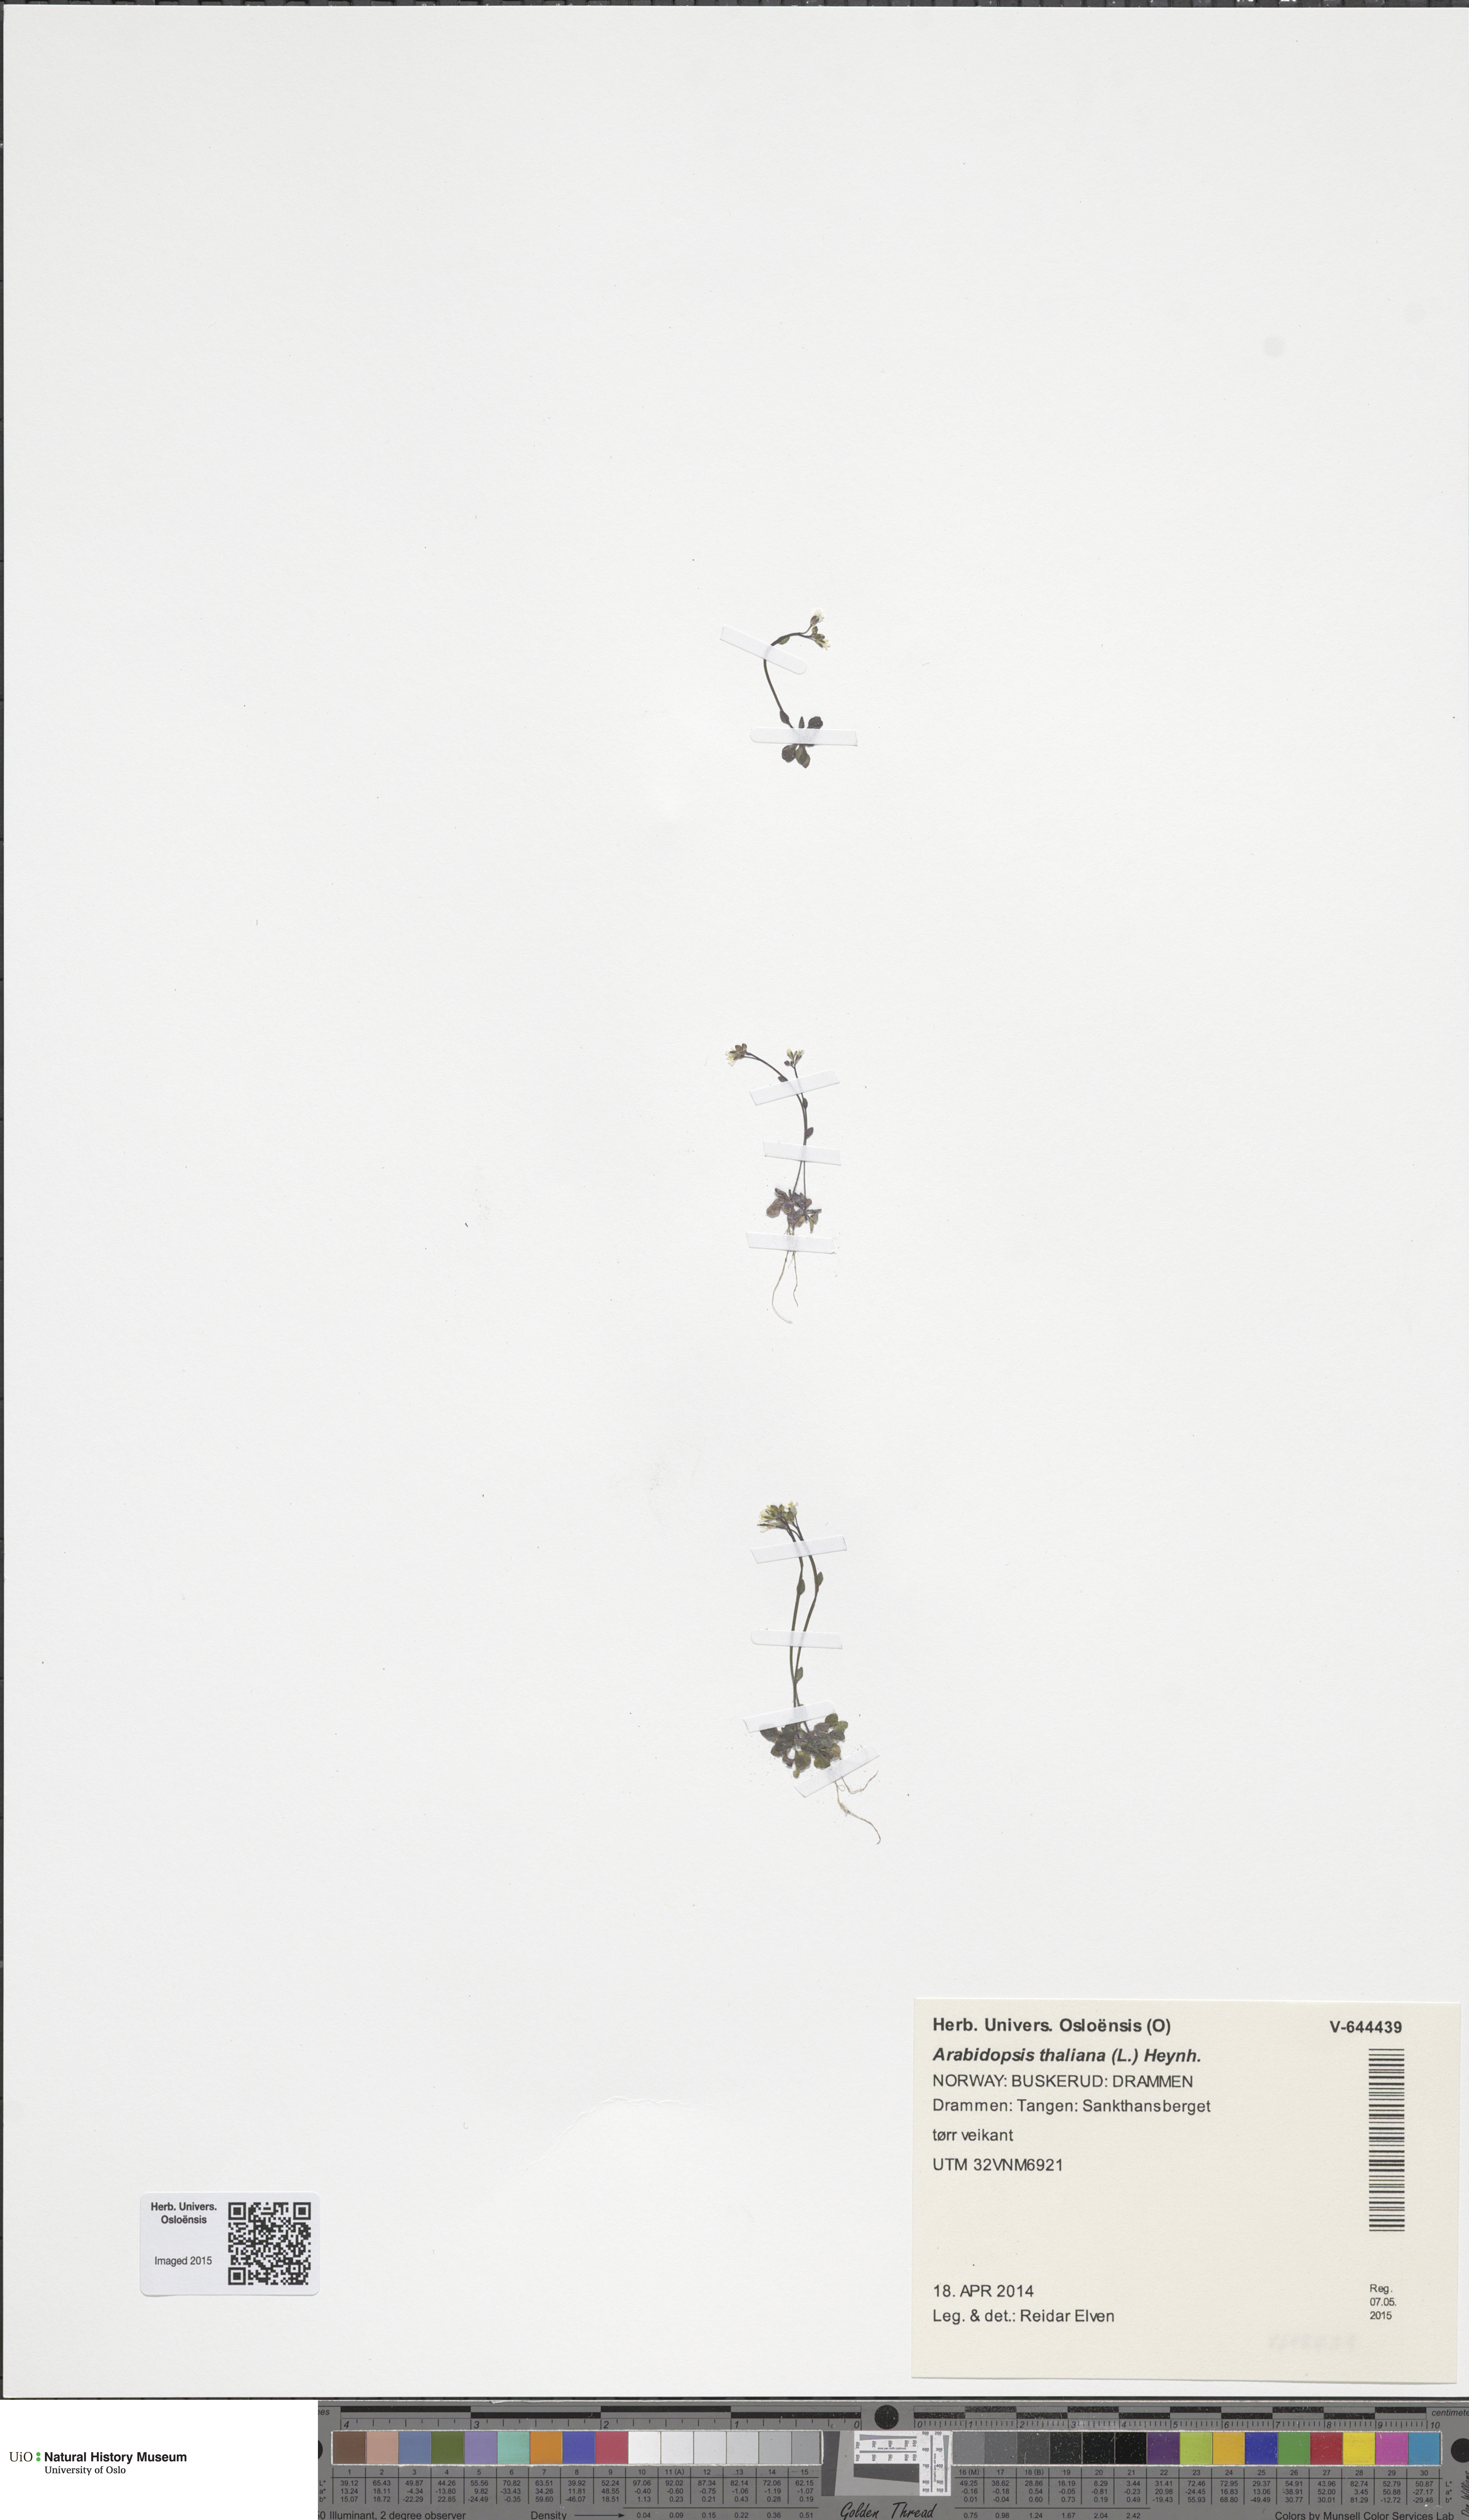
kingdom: Plantae
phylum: Tracheophyta
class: Magnoliopsida
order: Brassicales
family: Brassicaceae
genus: Arabidopsis
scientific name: Arabidopsis thaliana
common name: Thale cress
